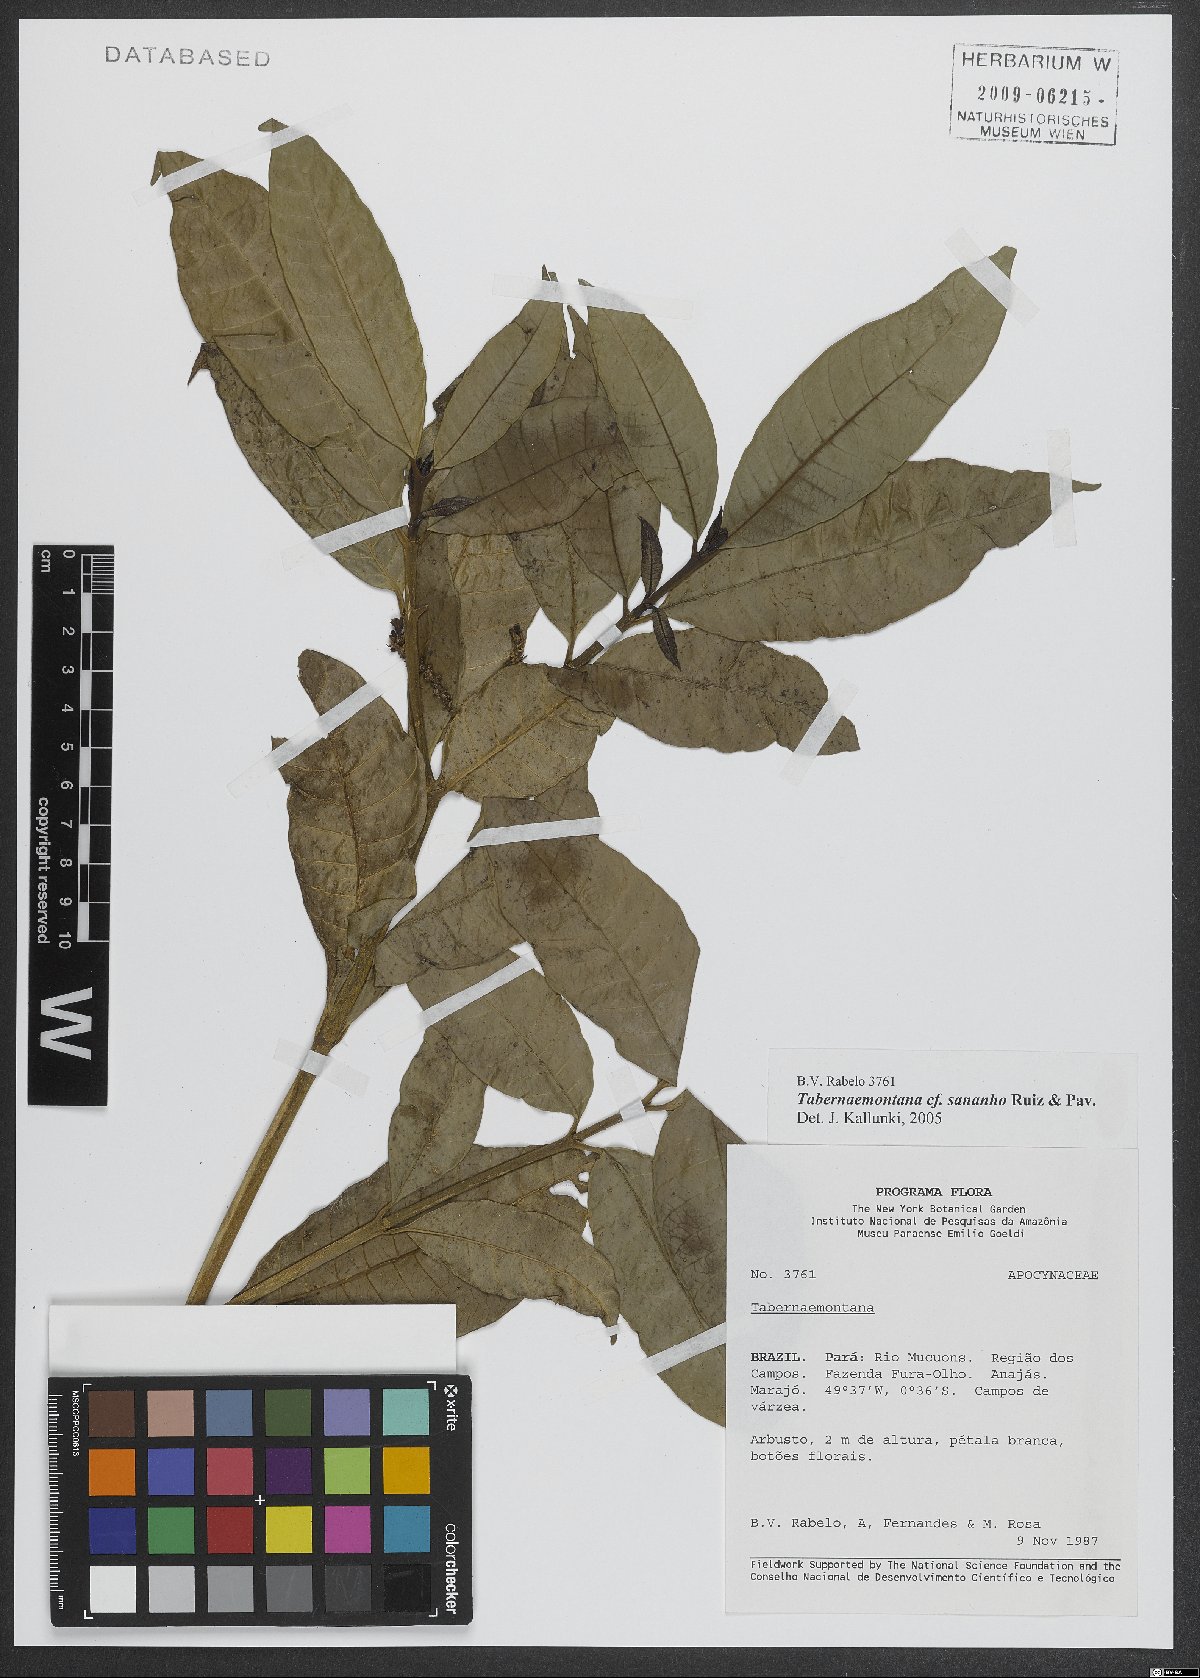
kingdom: Plantae
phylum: Tracheophyta
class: Magnoliopsida
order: Gentianales
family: Apocynaceae
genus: Tabernaemontana
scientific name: Tabernaemontana sananho
